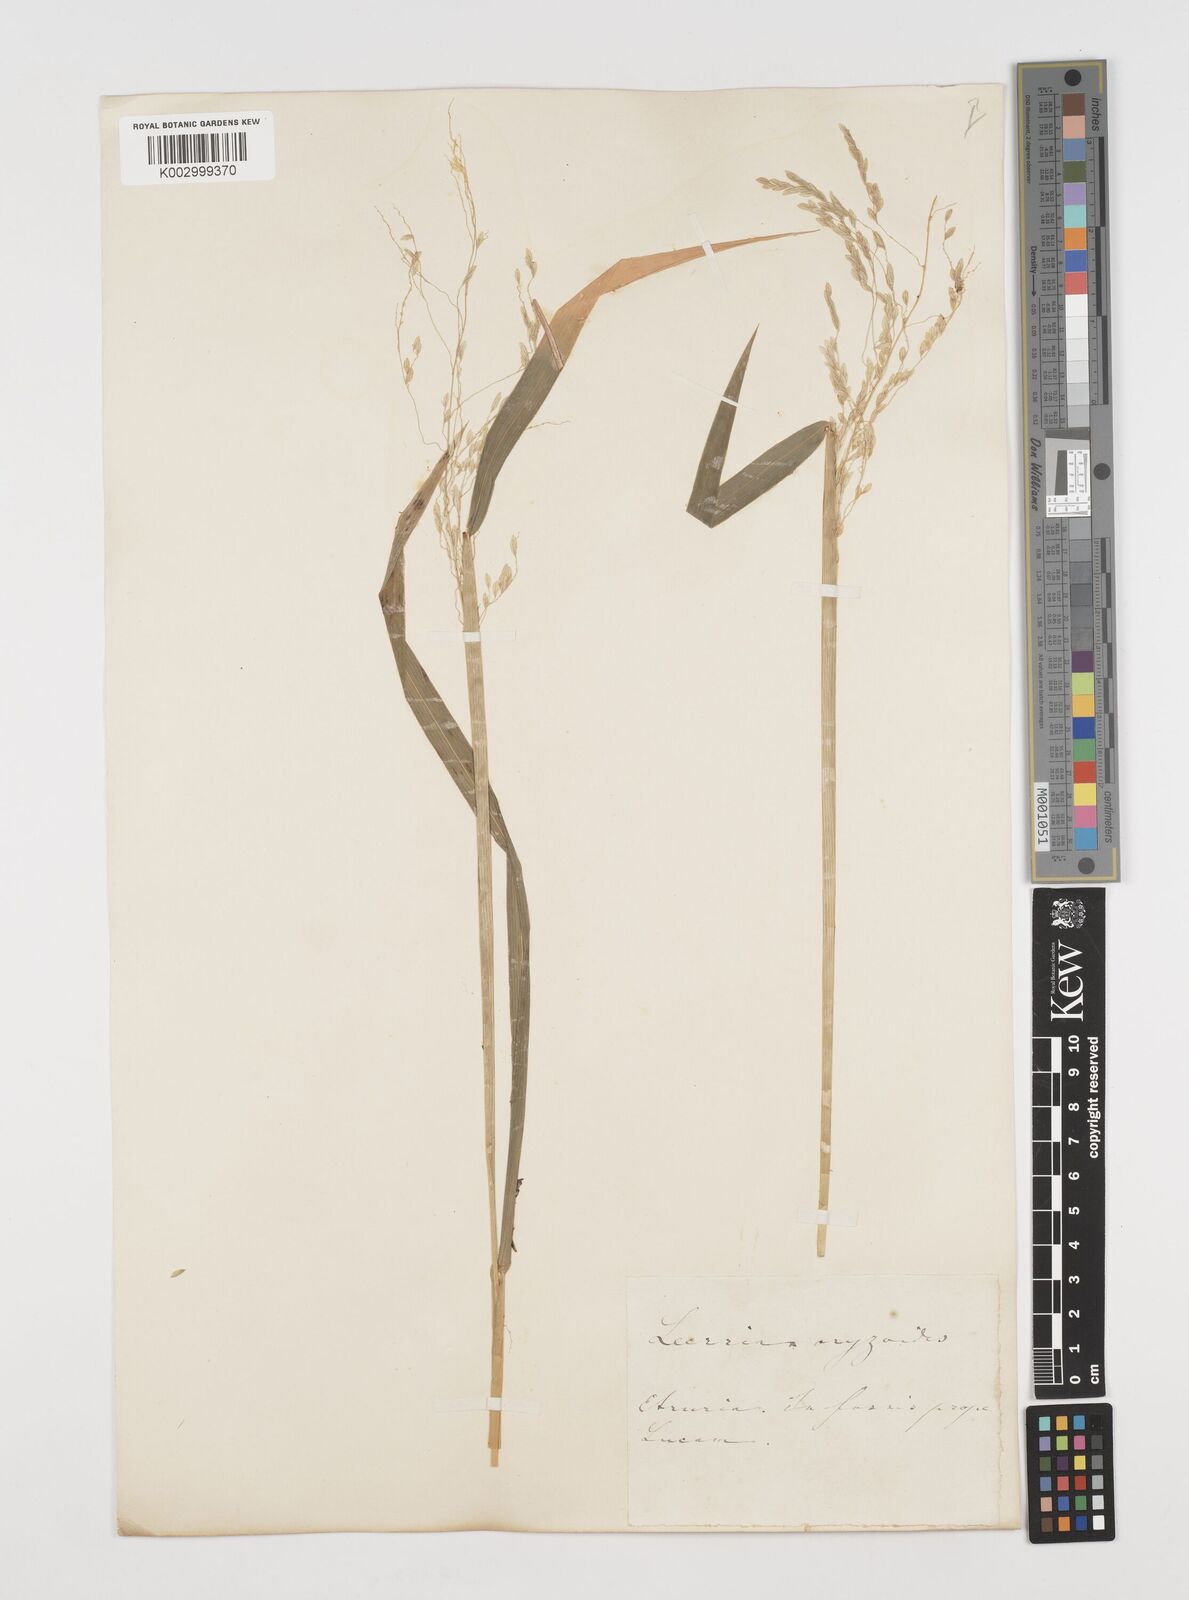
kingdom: Plantae
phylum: Tracheophyta
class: Liliopsida
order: Poales
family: Poaceae
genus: Leersia
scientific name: Leersia oryzoides
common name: Cut-grass
